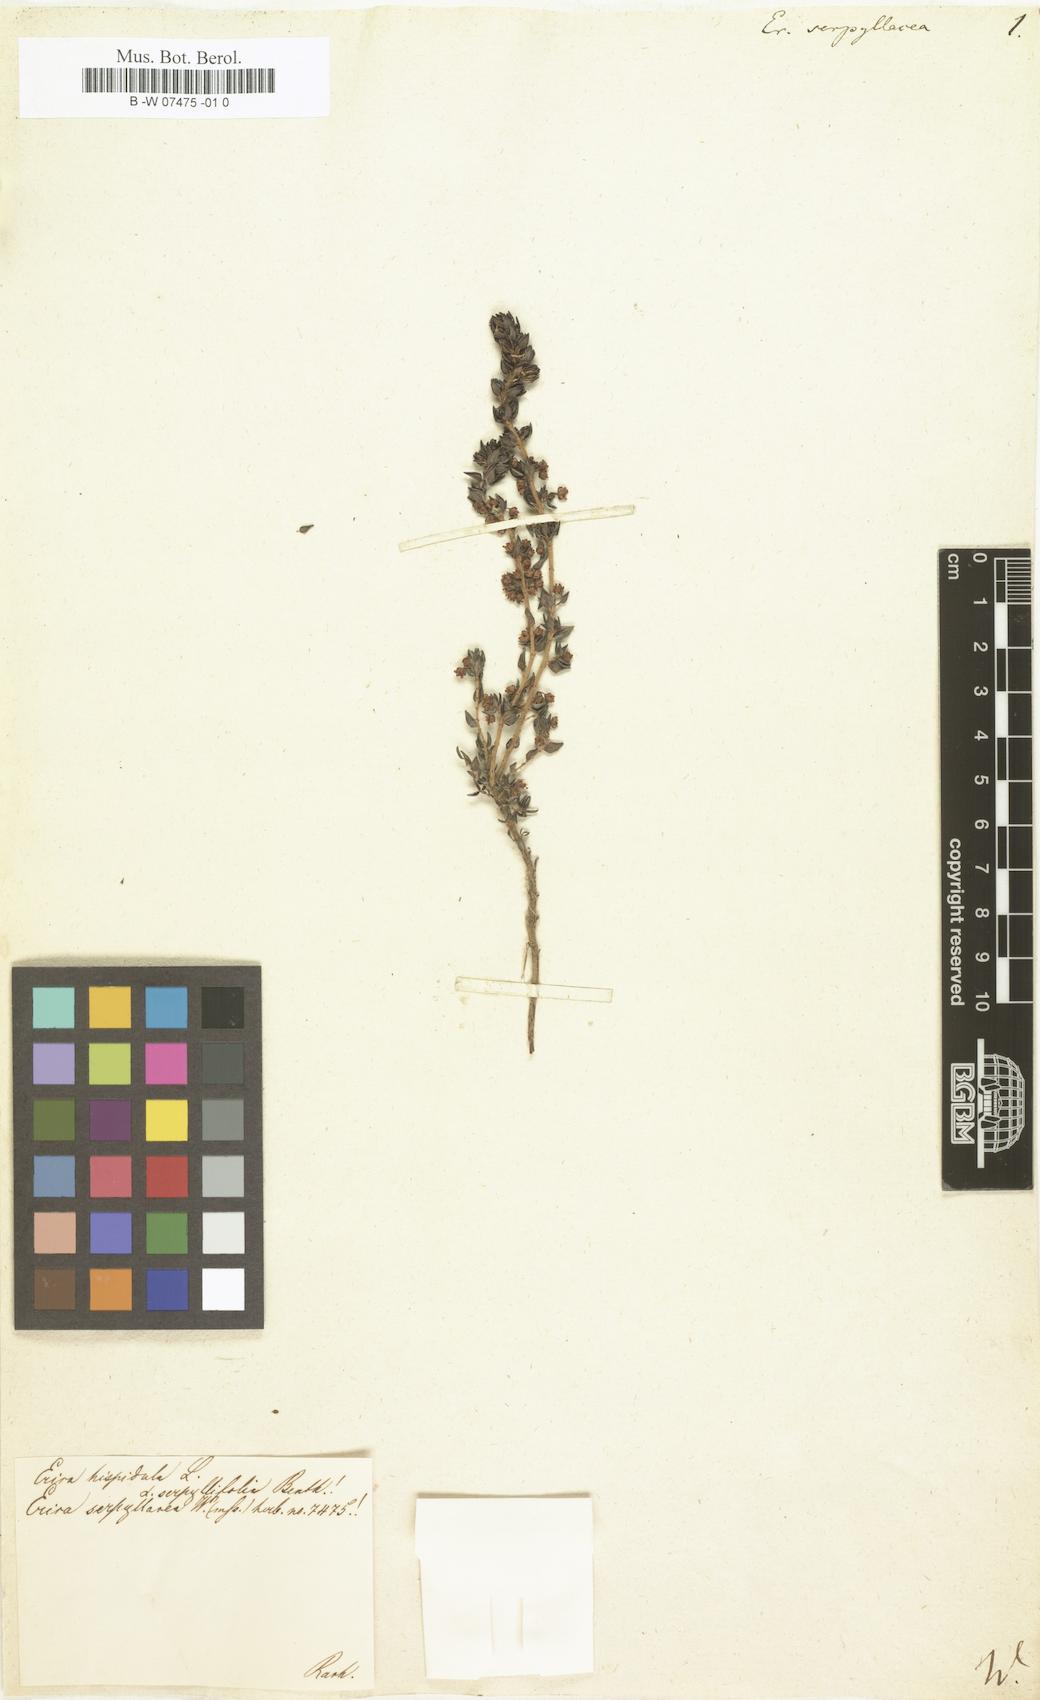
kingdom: Plantae
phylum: Tracheophyta
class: Magnoliopsida
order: Ericales
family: Ericaceae
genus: Erica
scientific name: Erica
